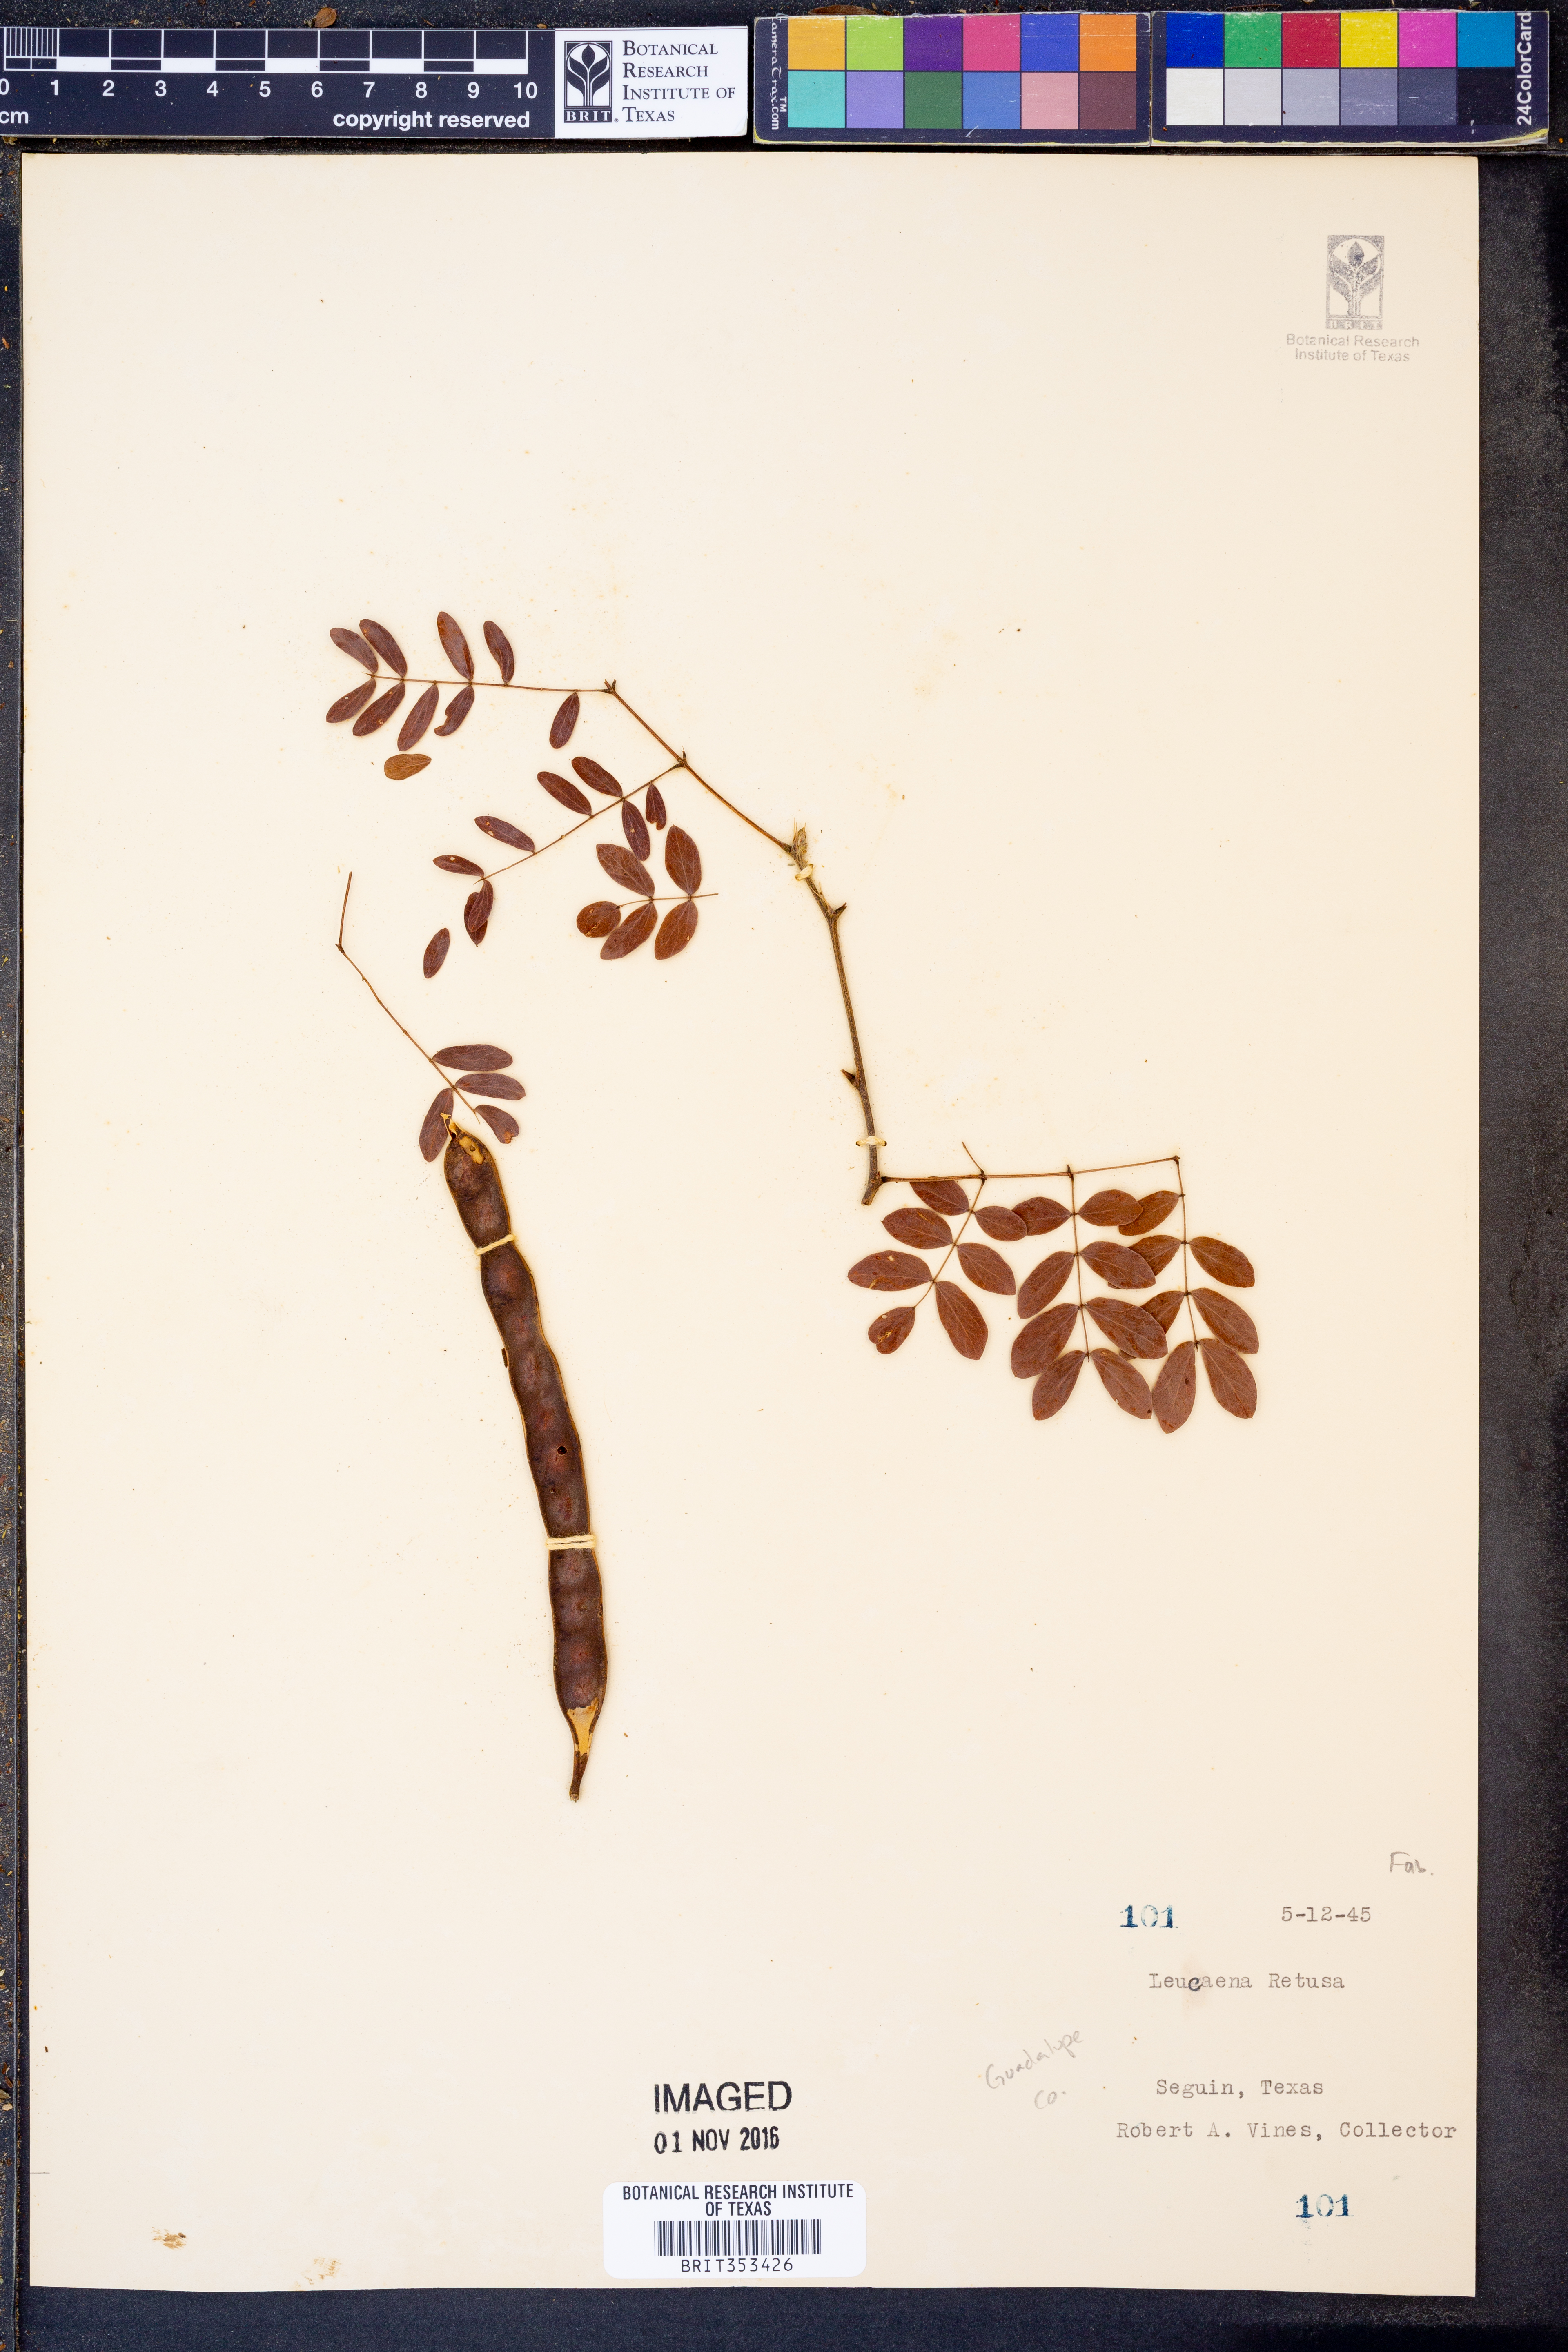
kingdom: Plantae
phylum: Tracheophyta
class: Magnoliopsida
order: Fabales
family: Fabaceae
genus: Leucaena
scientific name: Leucaena retusa
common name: Littleleaf leadtree
